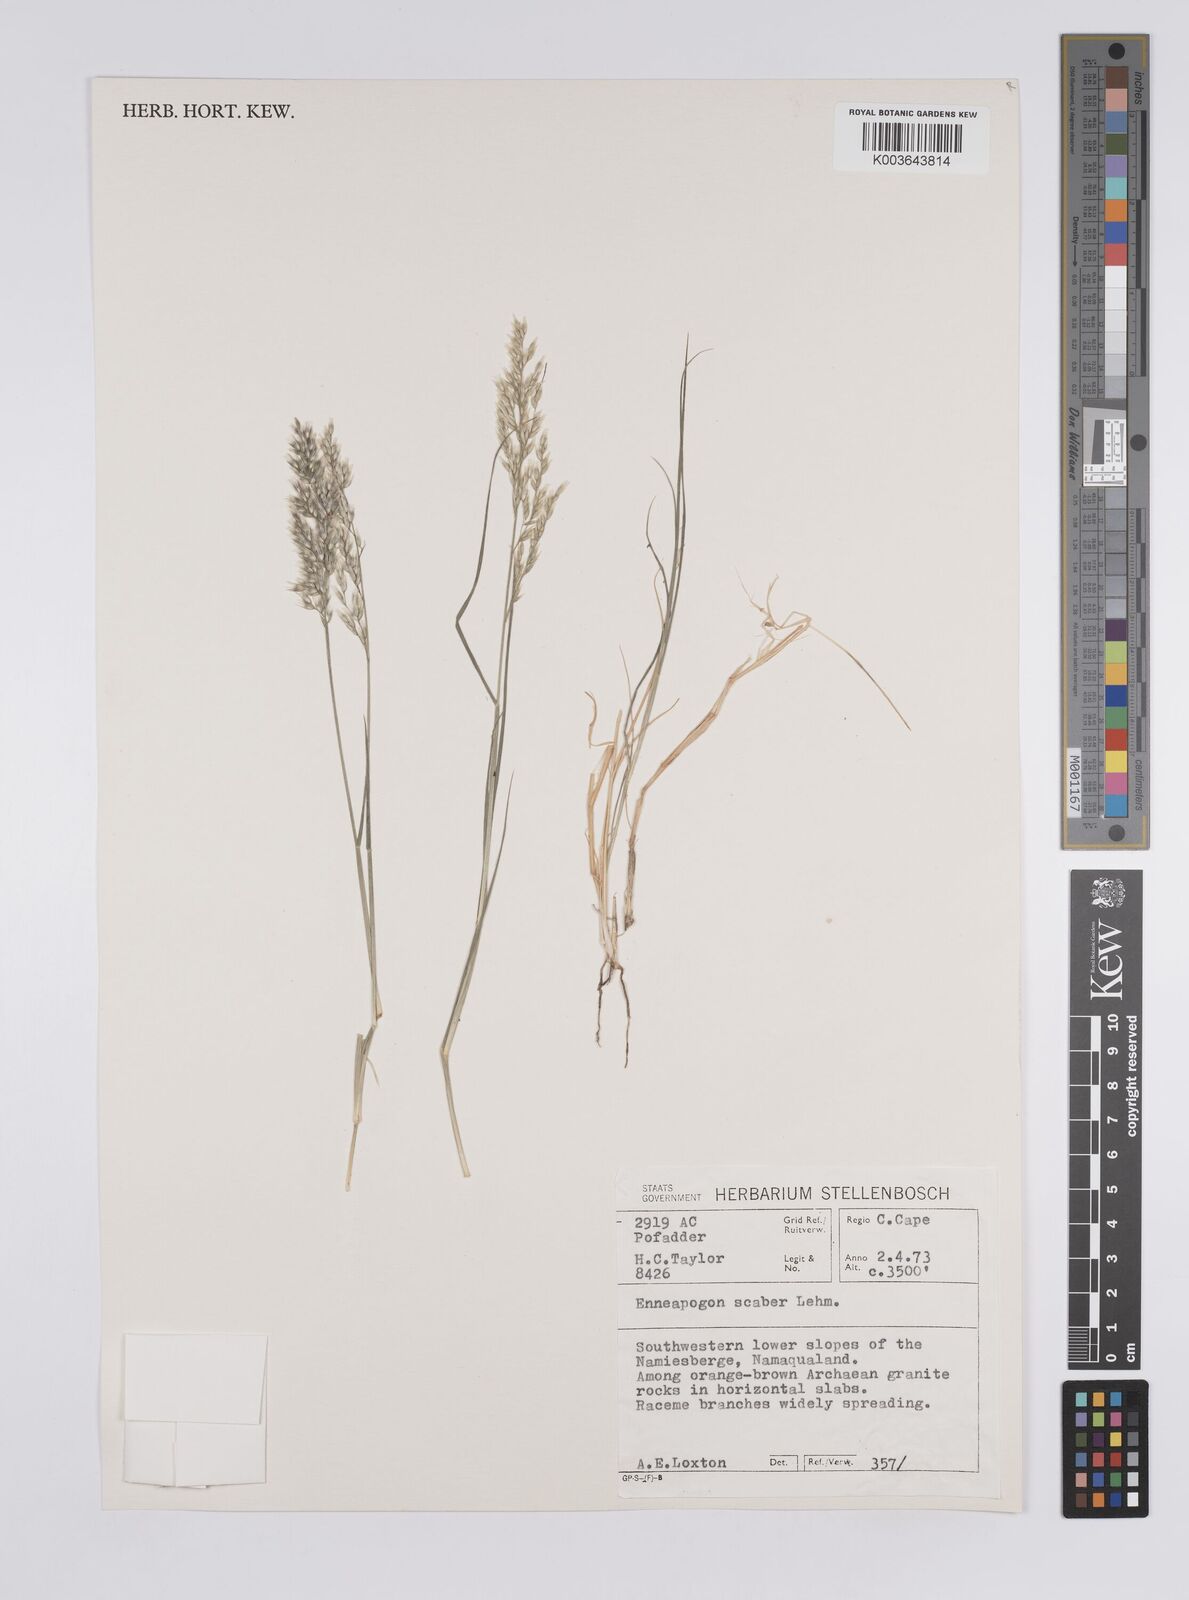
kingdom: Plantae
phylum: Tracheophyta
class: Liliopsida
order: Poales
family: Poaceae
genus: Enneapogon
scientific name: Enneapogon scaber
